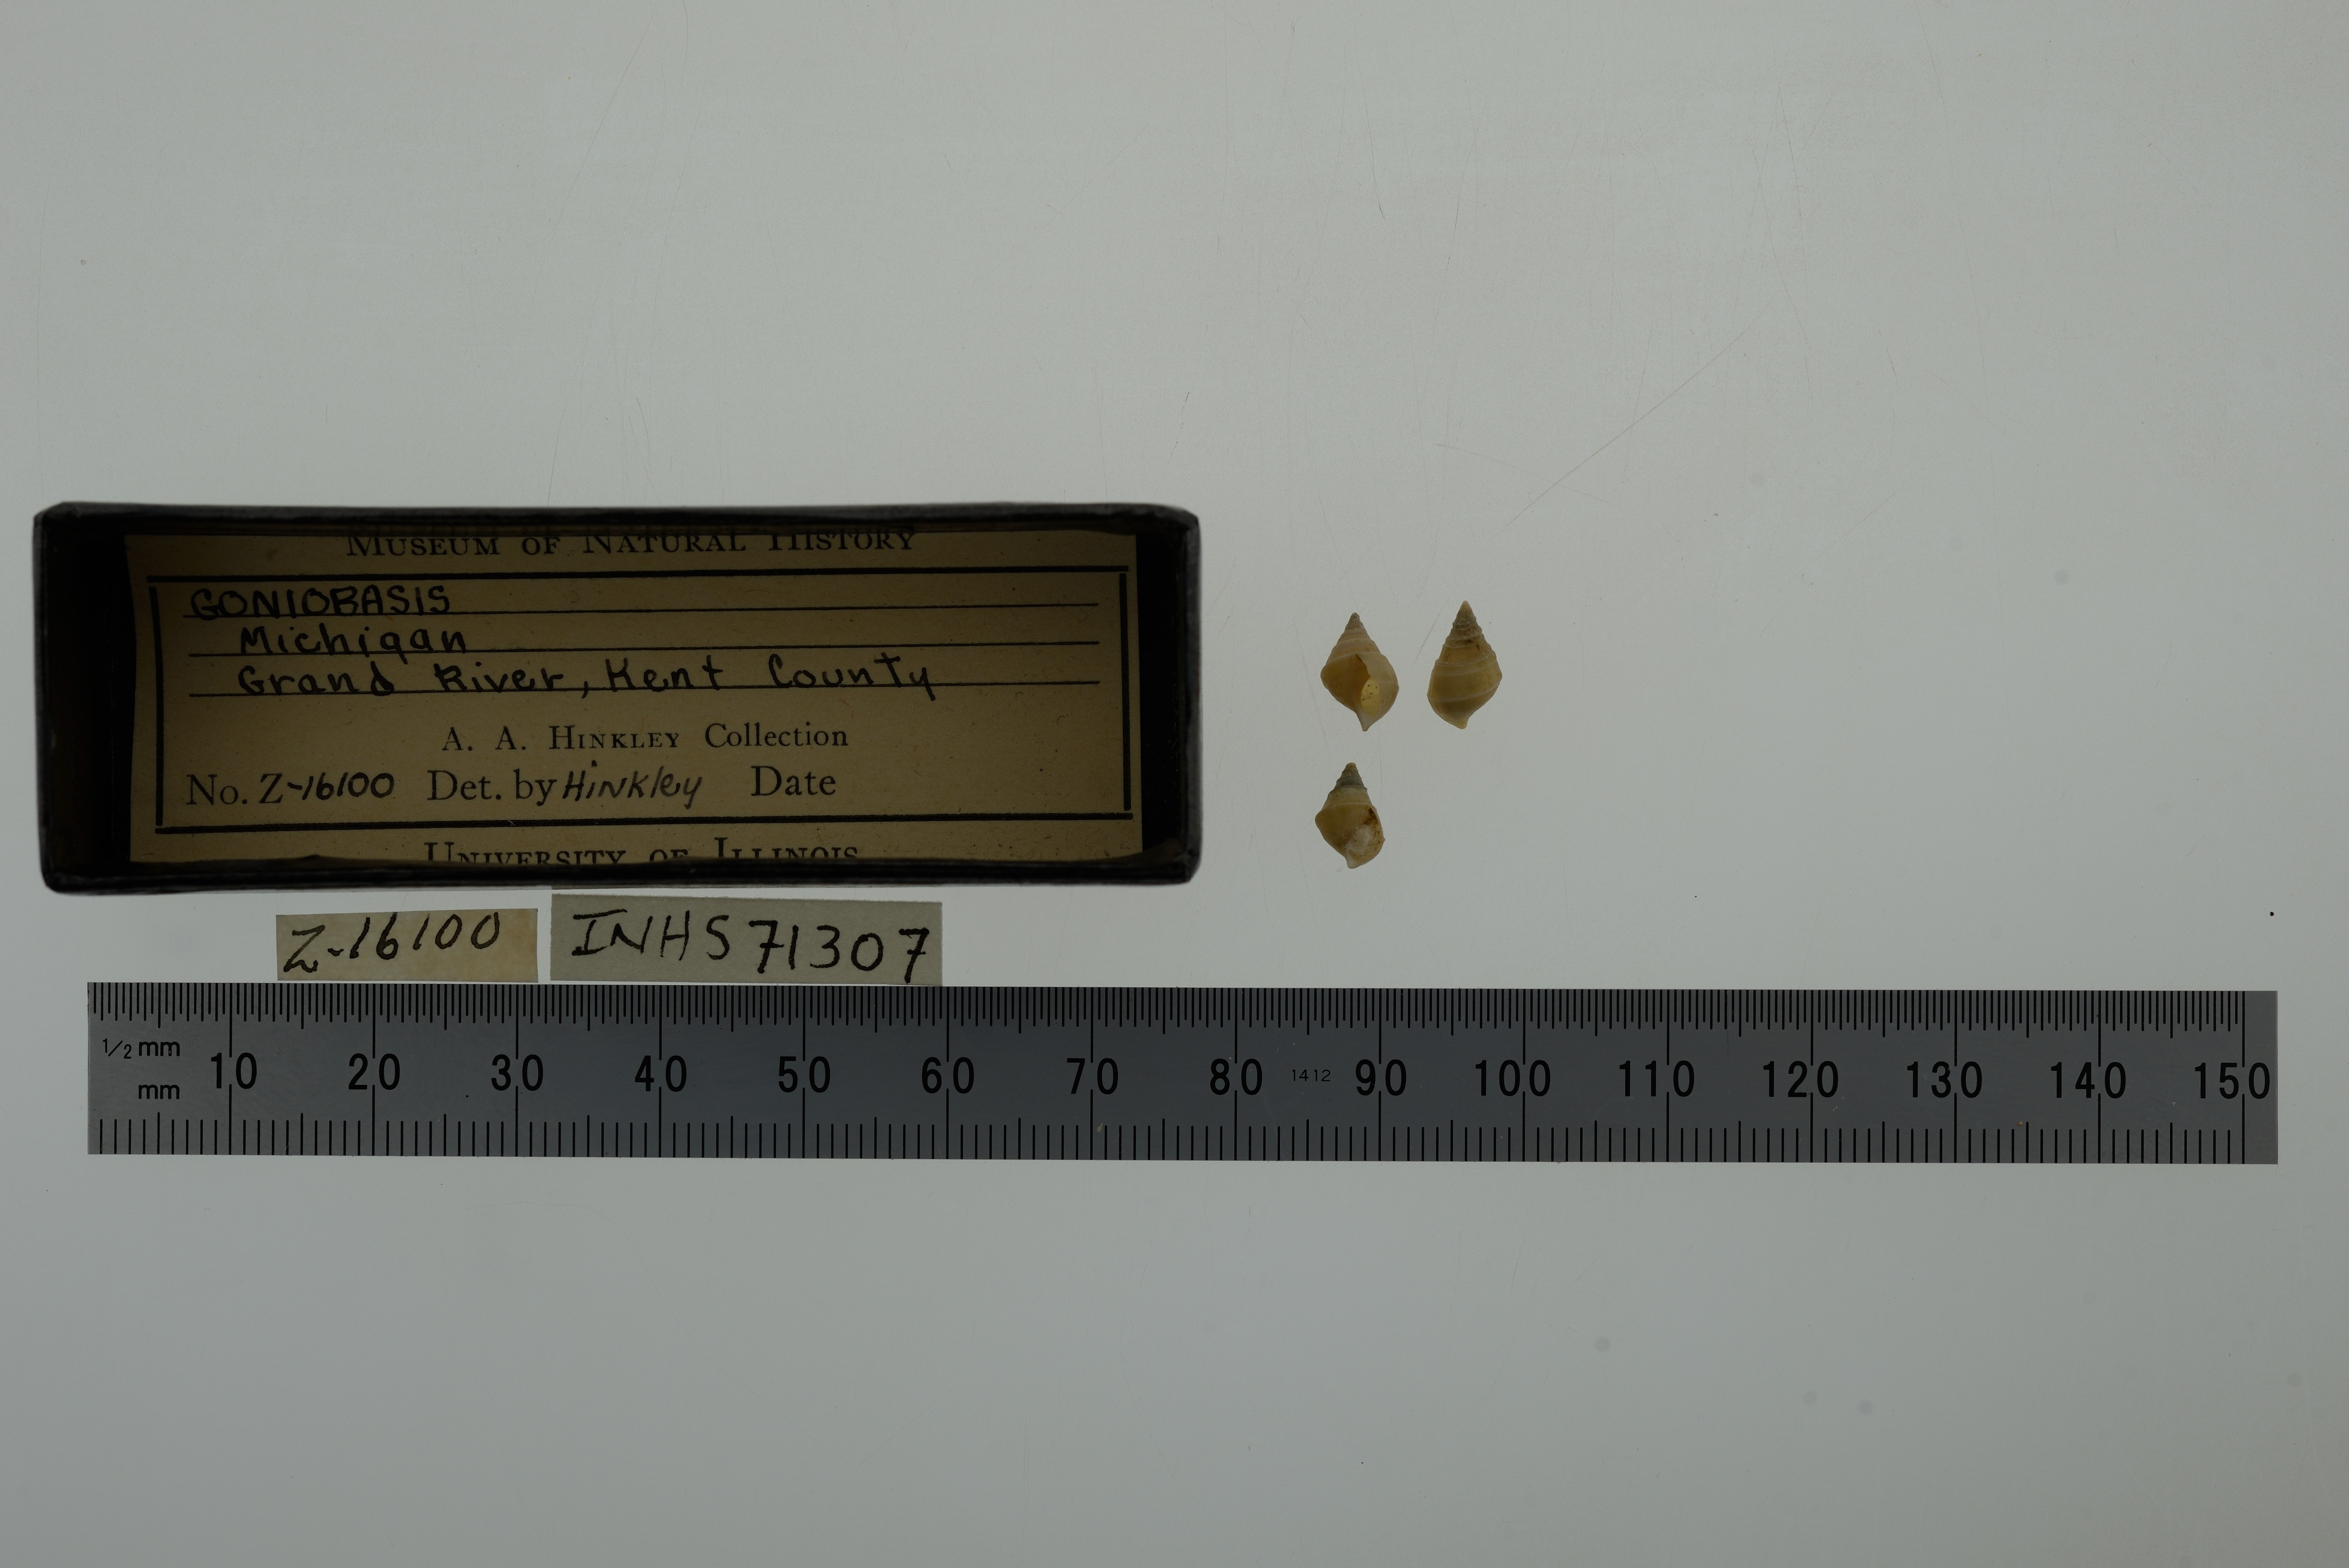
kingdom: Animalia
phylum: Mollusca
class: Gastropoda
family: Pleuroceridae
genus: Elimia
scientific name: Elimia
